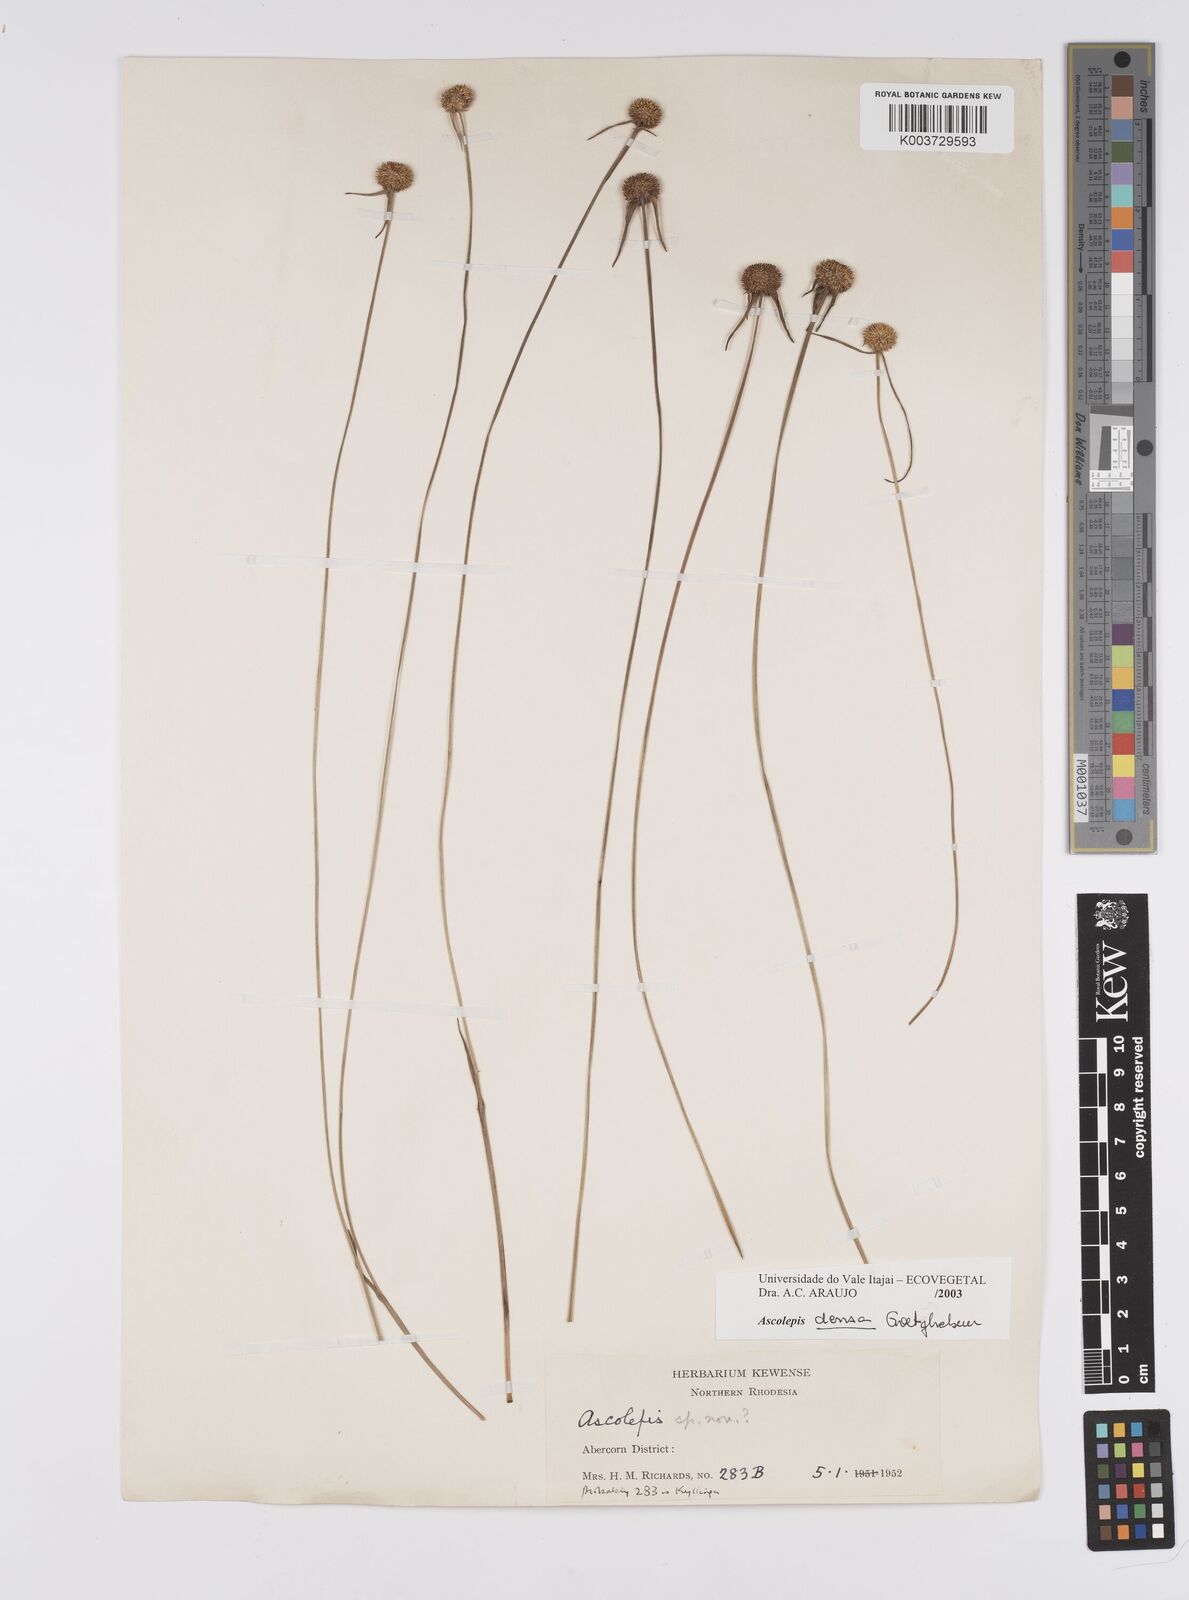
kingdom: Plantae
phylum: Tracheophyta
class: Liliopsida
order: Poales
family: Cyperaceae
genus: Cyperus
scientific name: Cyperus
